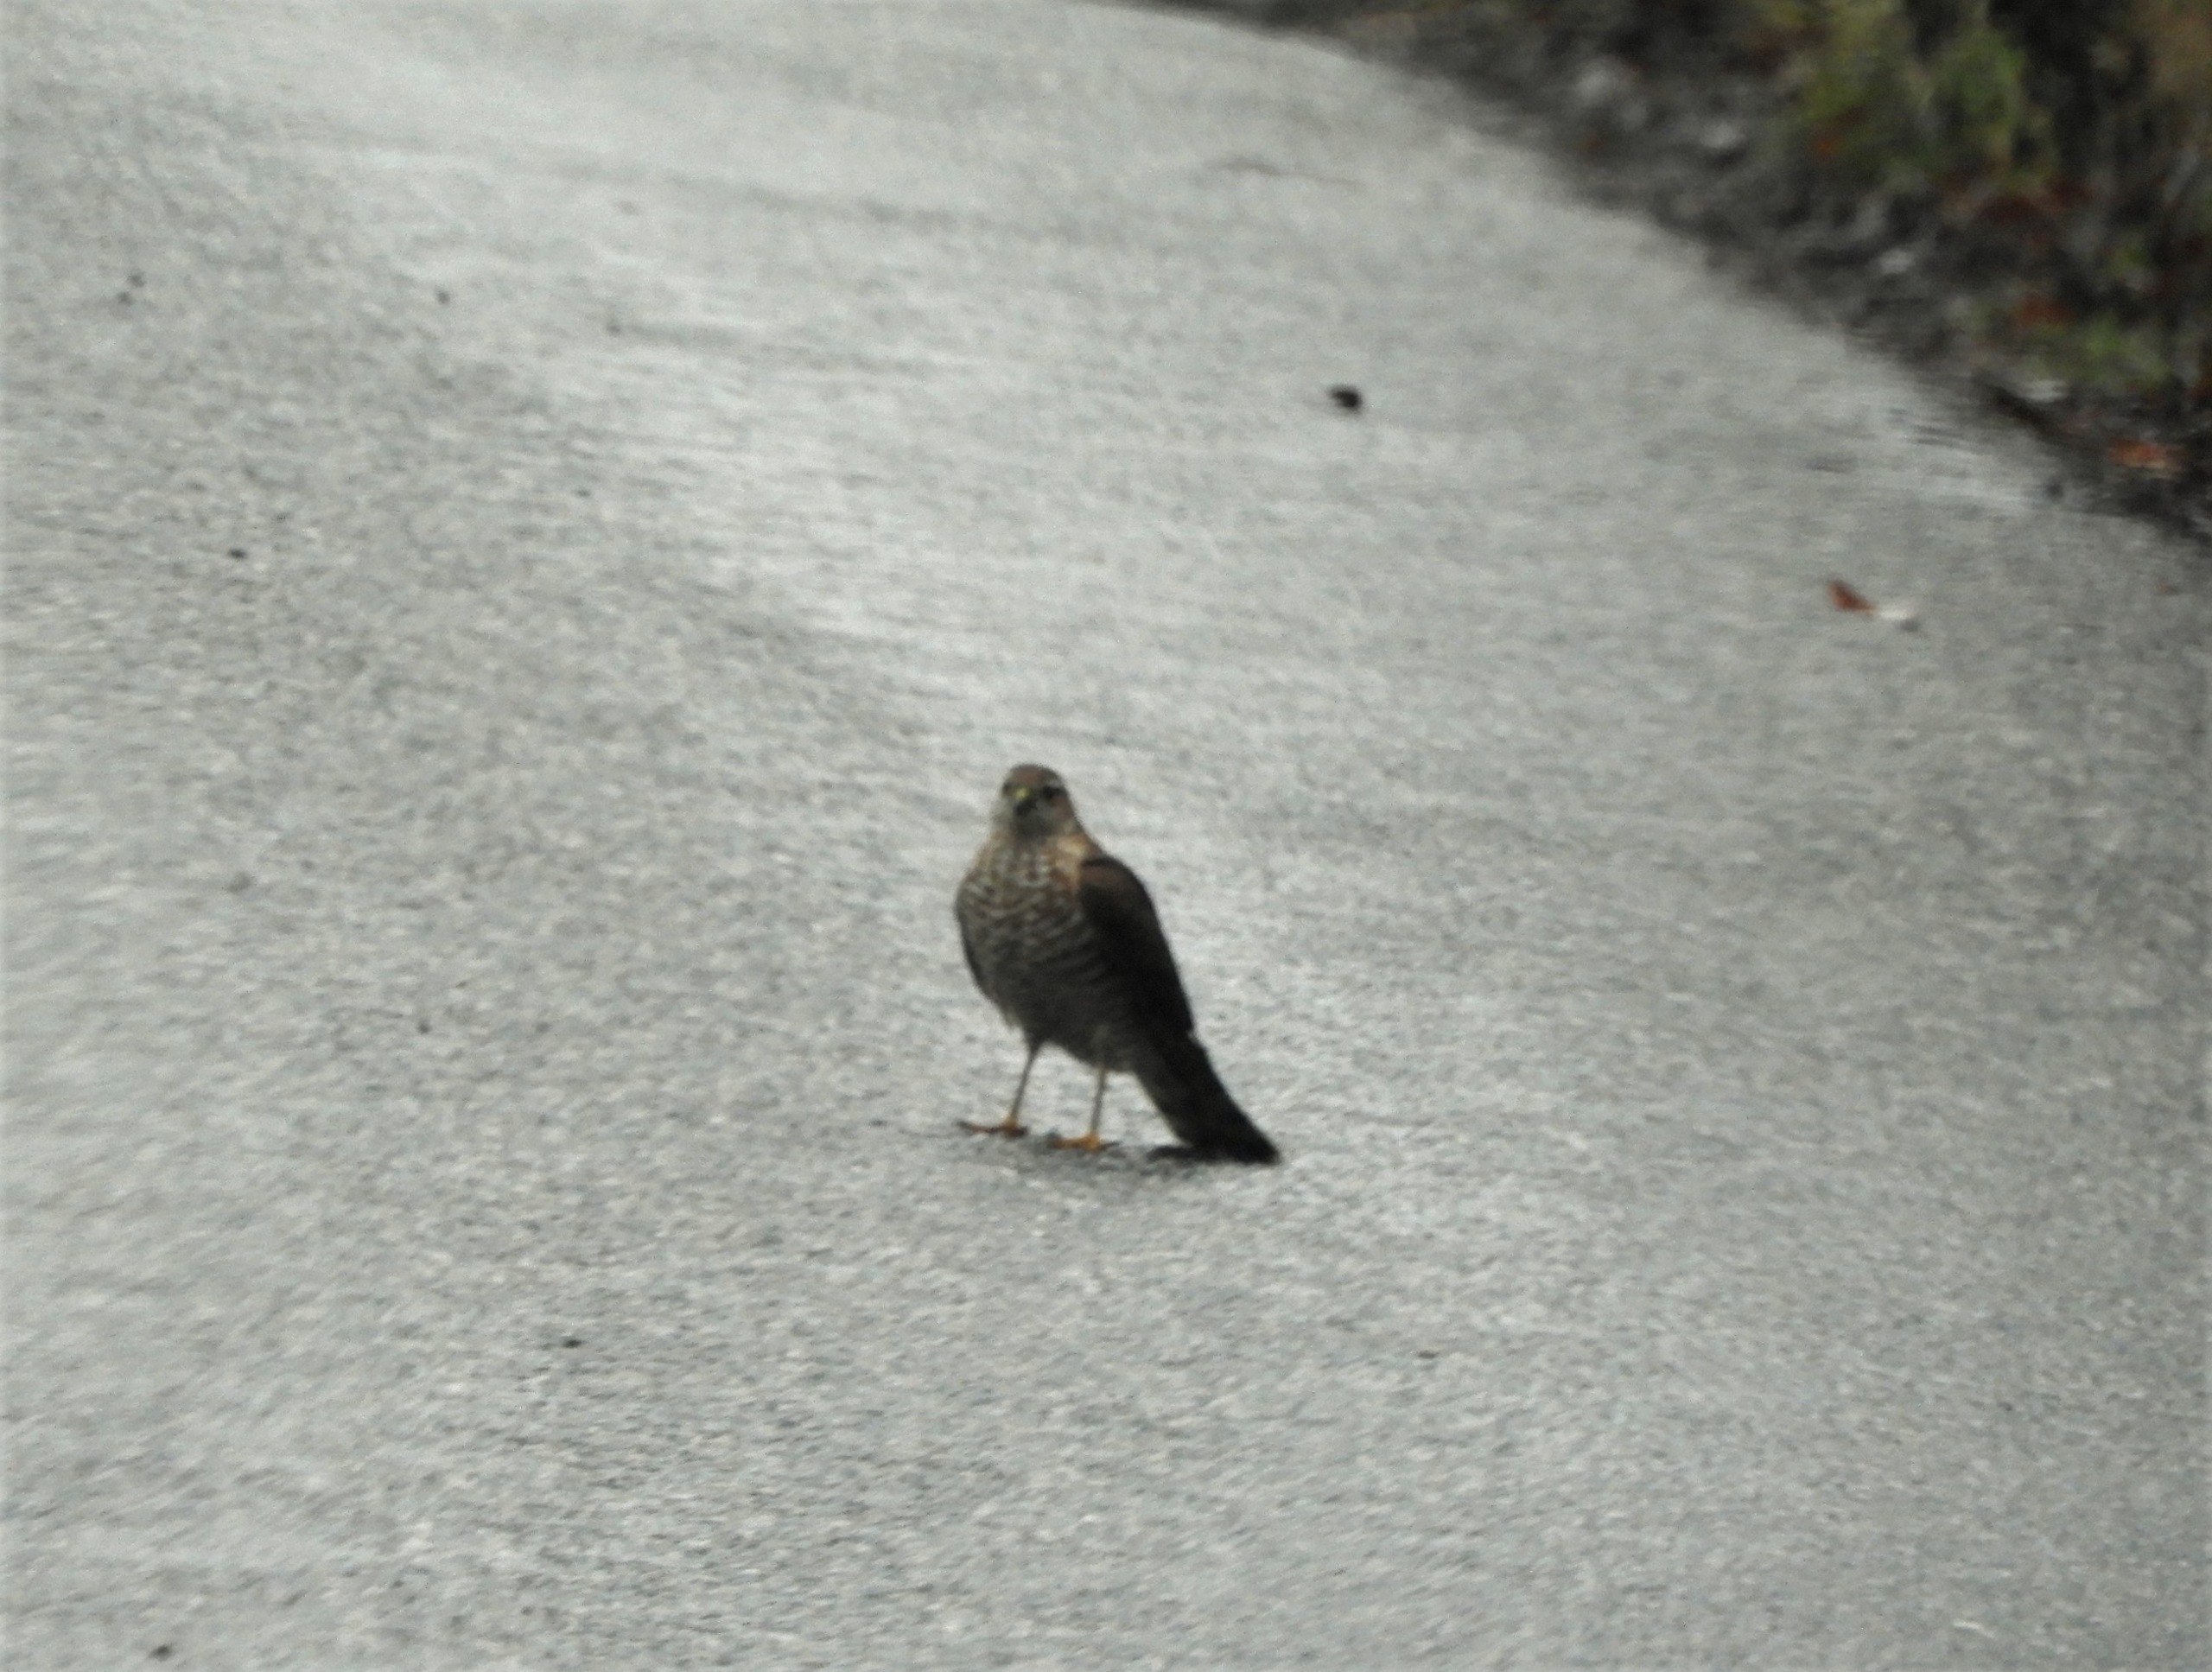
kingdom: Animalia
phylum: Chordata
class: Aves
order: Accipitriformes
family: Accipitridae
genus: Accipiter
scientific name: Accipiter nisus
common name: Spurvehøg
